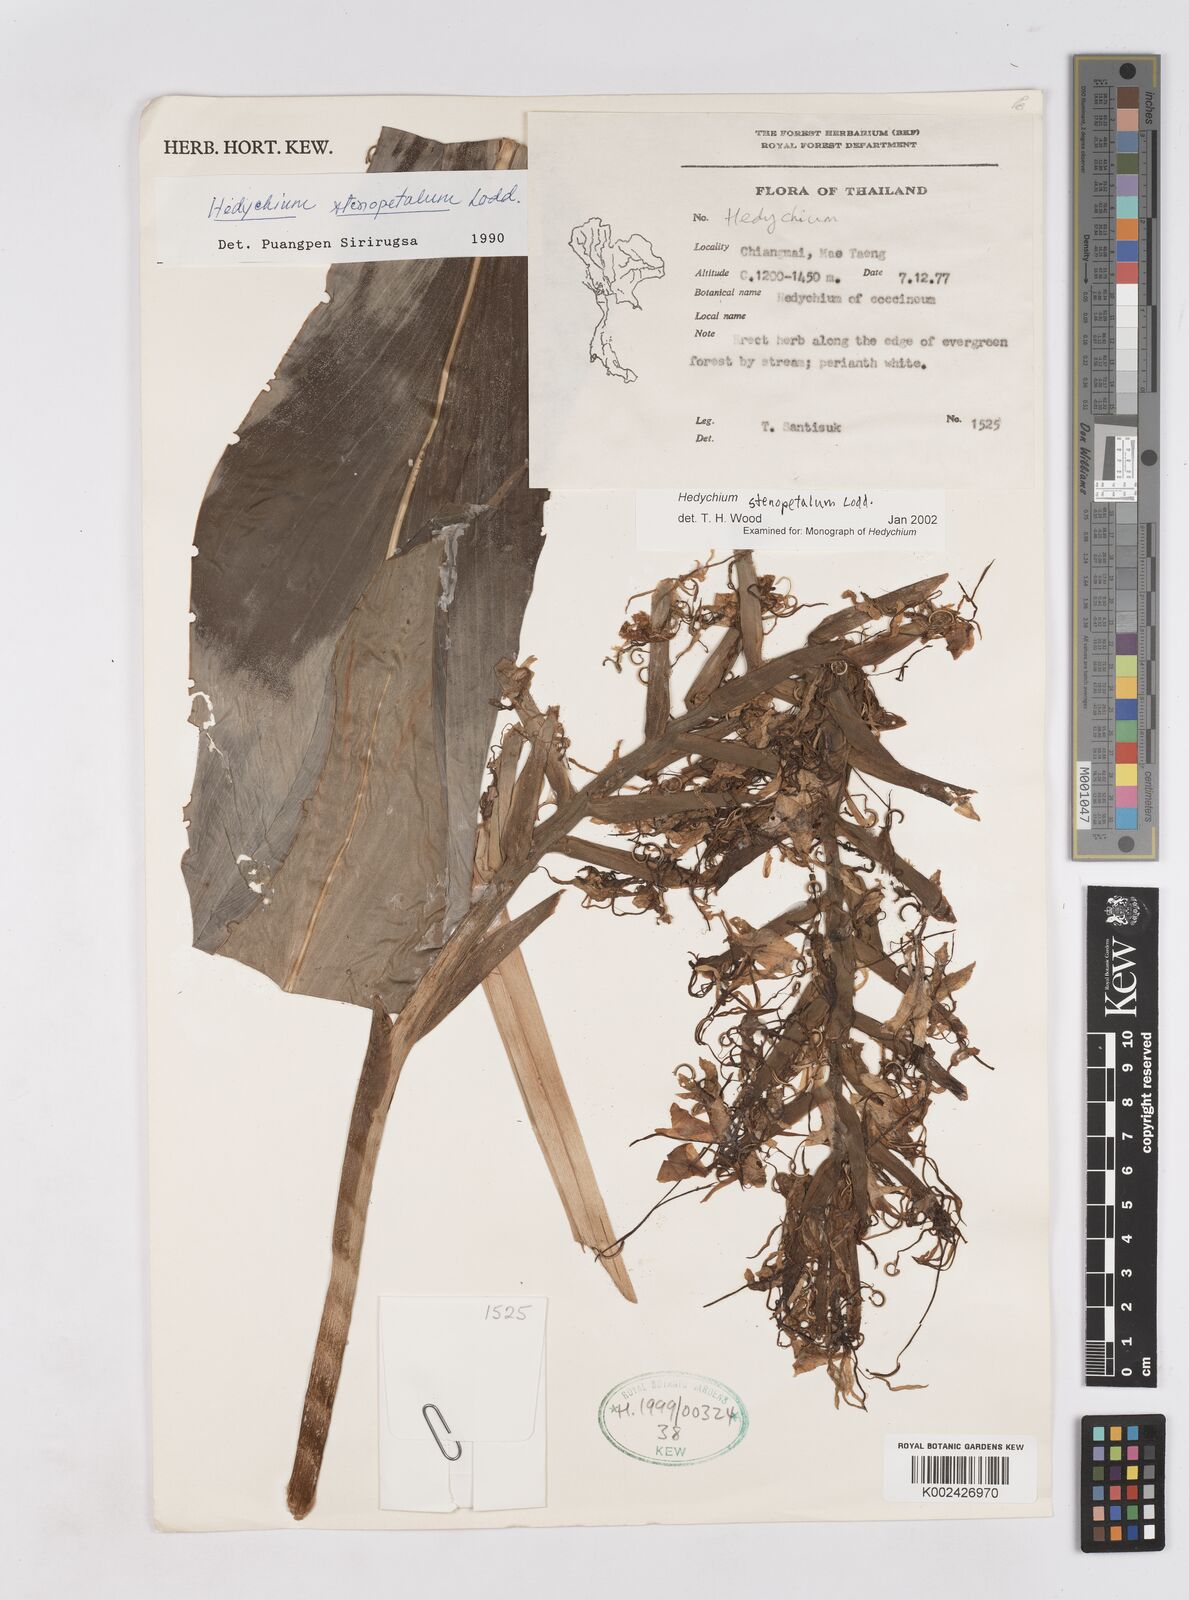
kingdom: Plantae
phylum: Tracheophyta
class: Liliopsida
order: Zingiberales
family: Zingiberaceae
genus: Hedychium
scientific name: Hedychium stenopetalum
